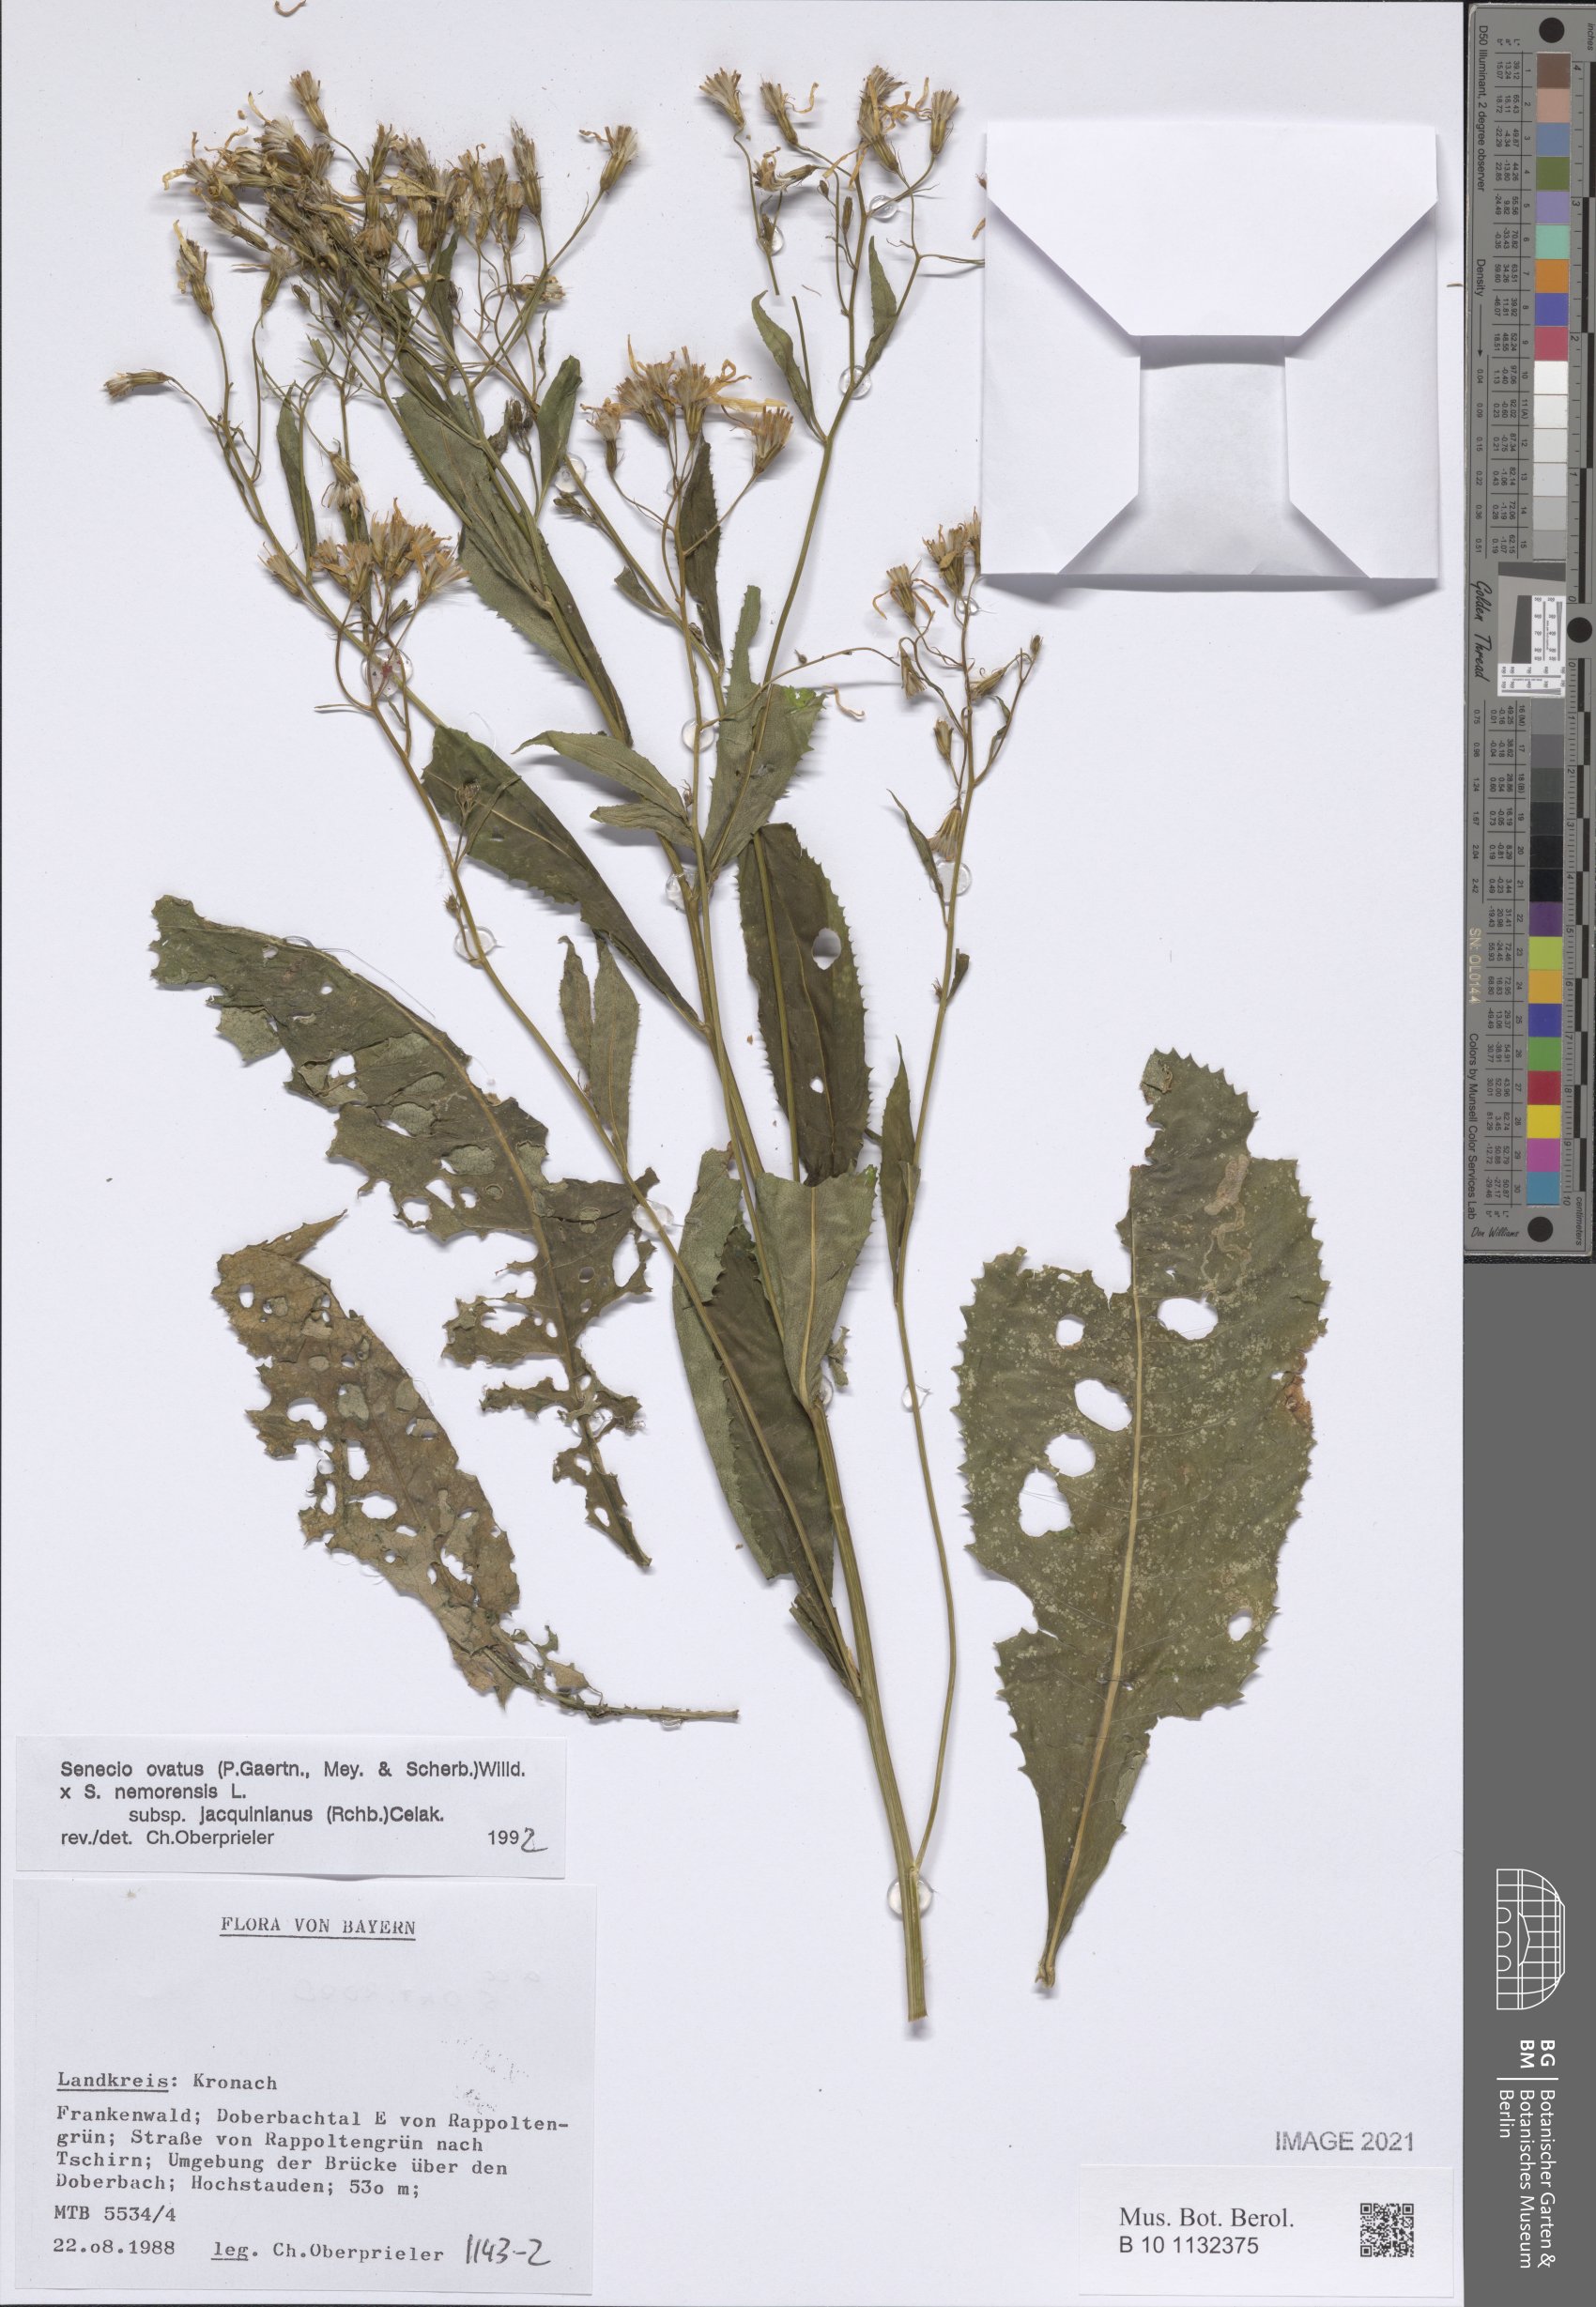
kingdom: Plantae
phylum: Tracheophyta
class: Magnoliopsida
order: Asterales
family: Asteraceae
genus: Senecio
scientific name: Senecio ovatus
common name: Wood ragwort
